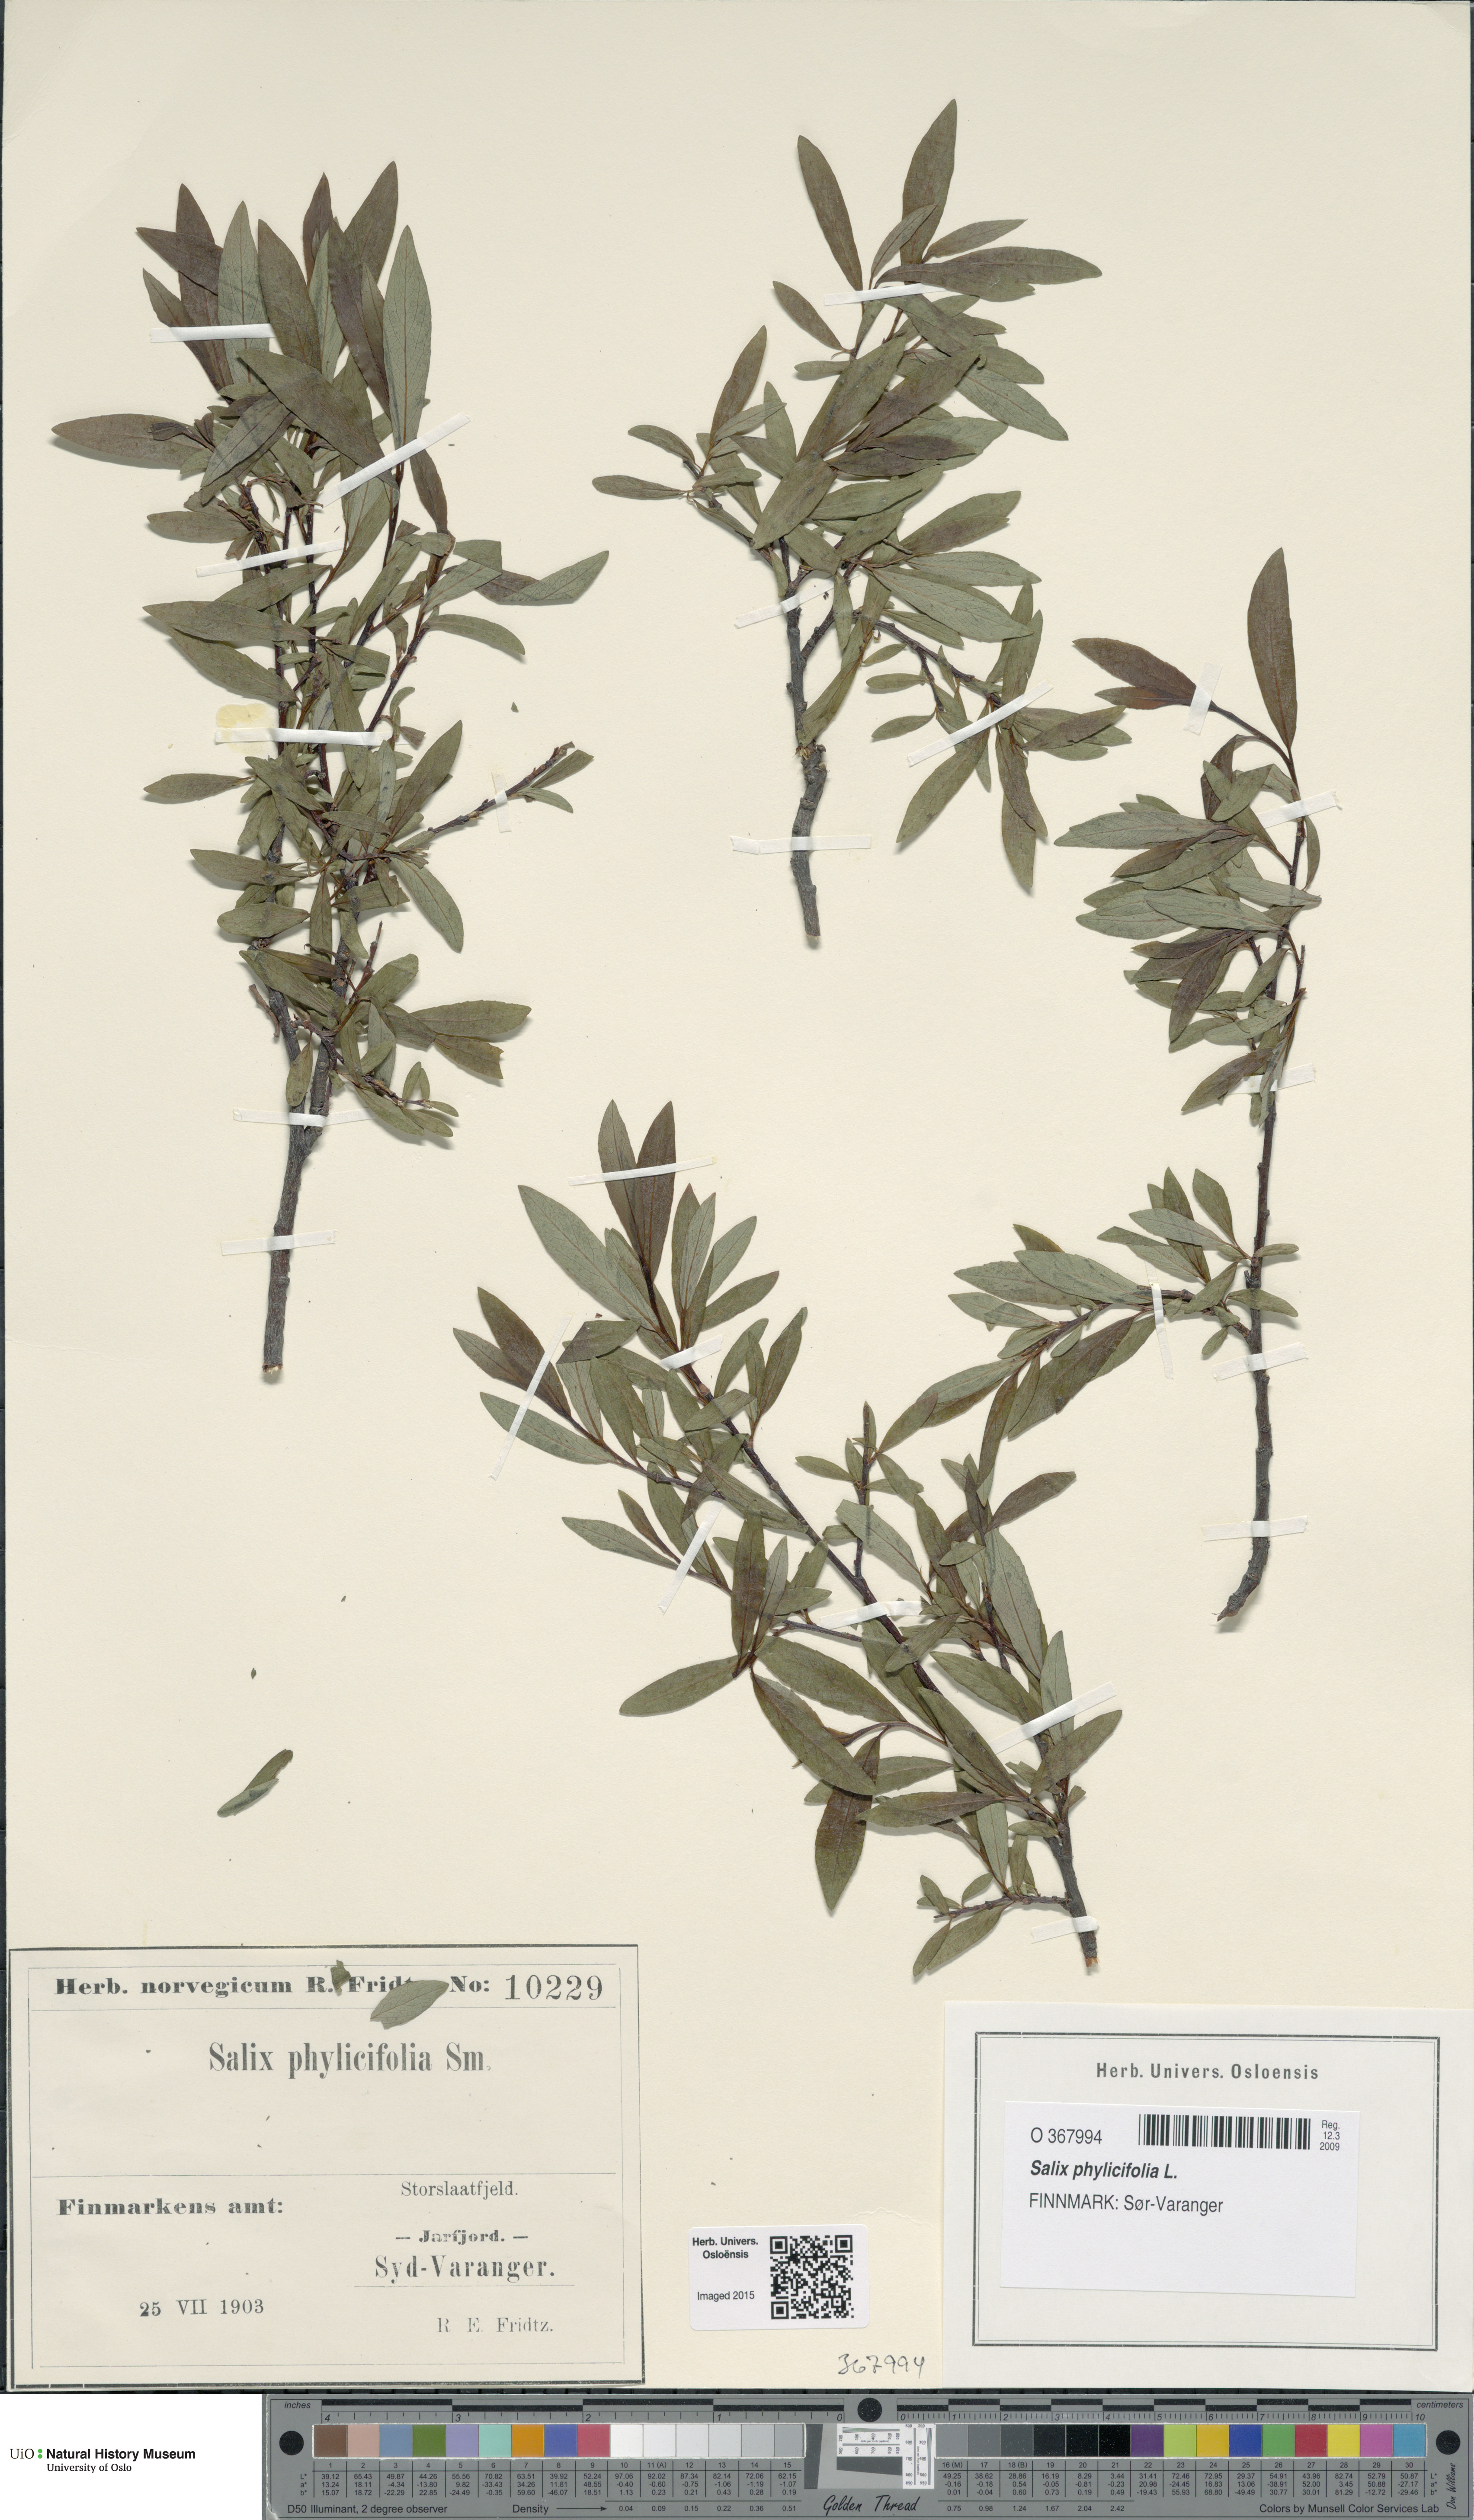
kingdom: Plantae
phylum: Tracheophyta
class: Magnoliopsida
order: Malpighiales
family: Salicaceae
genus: Salix
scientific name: Salix phylicifolia
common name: Tea-leaved willow
